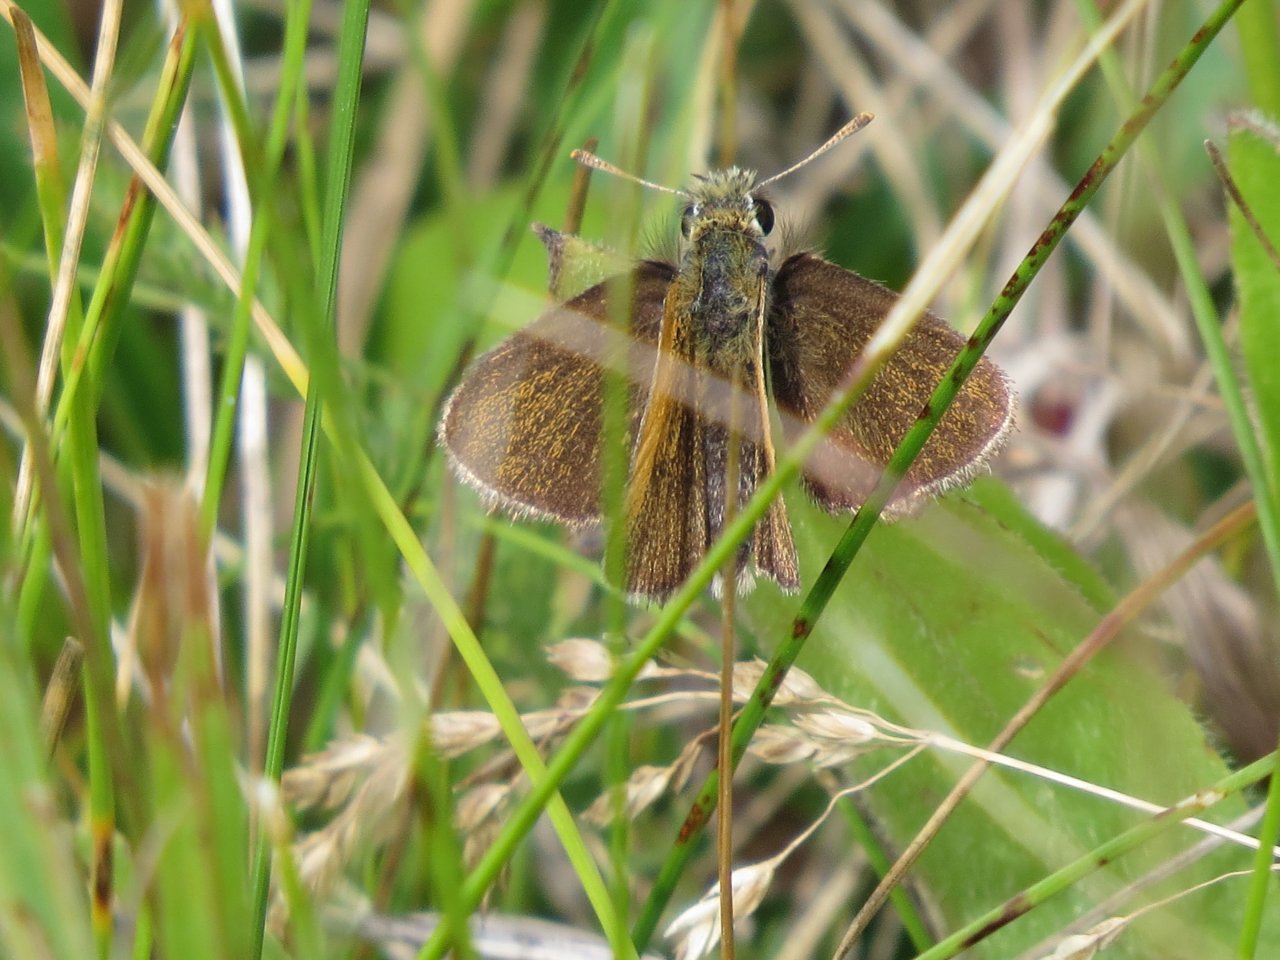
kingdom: Animalia
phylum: Arthropoda
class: Insecta
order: Lepidoptera
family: Hesperiidae
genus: Oarisma
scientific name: Oarisma garita
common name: Garita Skipperling
